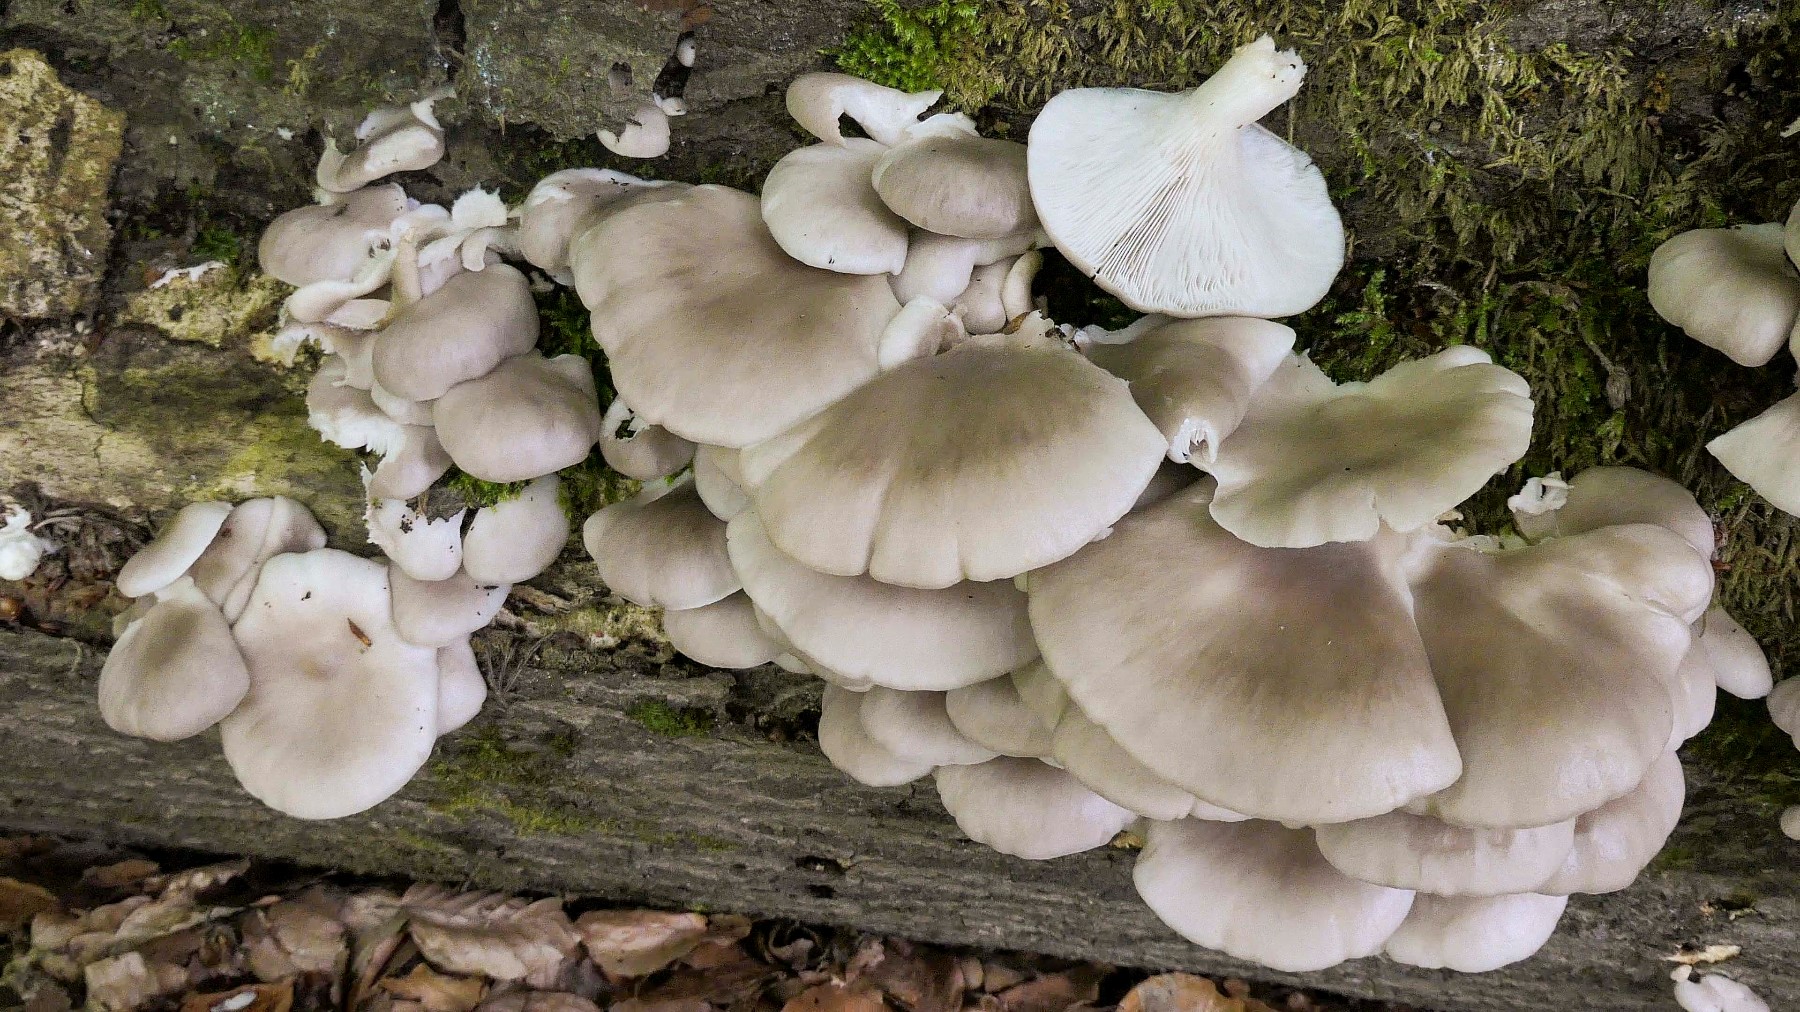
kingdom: Fungi
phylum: Basidiomycota
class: Agaricomycetes
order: Agaricales
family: Pleurotaceae
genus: Pleurotus
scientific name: Pleurotus pulmonarius
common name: sommer-østershat
